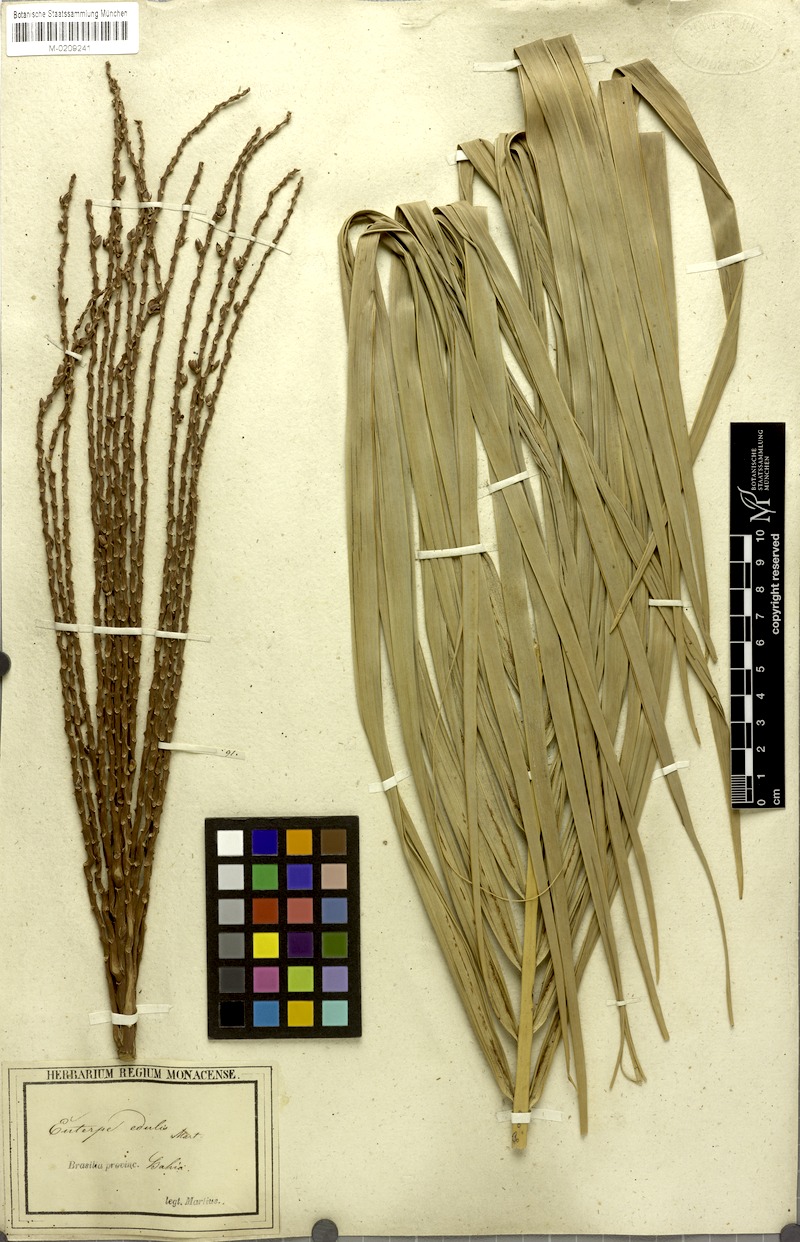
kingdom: Plantae
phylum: Tracheophyta
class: Liliopsida
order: Arecales
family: Arecaceae
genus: Euterpe
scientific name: Euterpe edulis
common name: Assai palm
